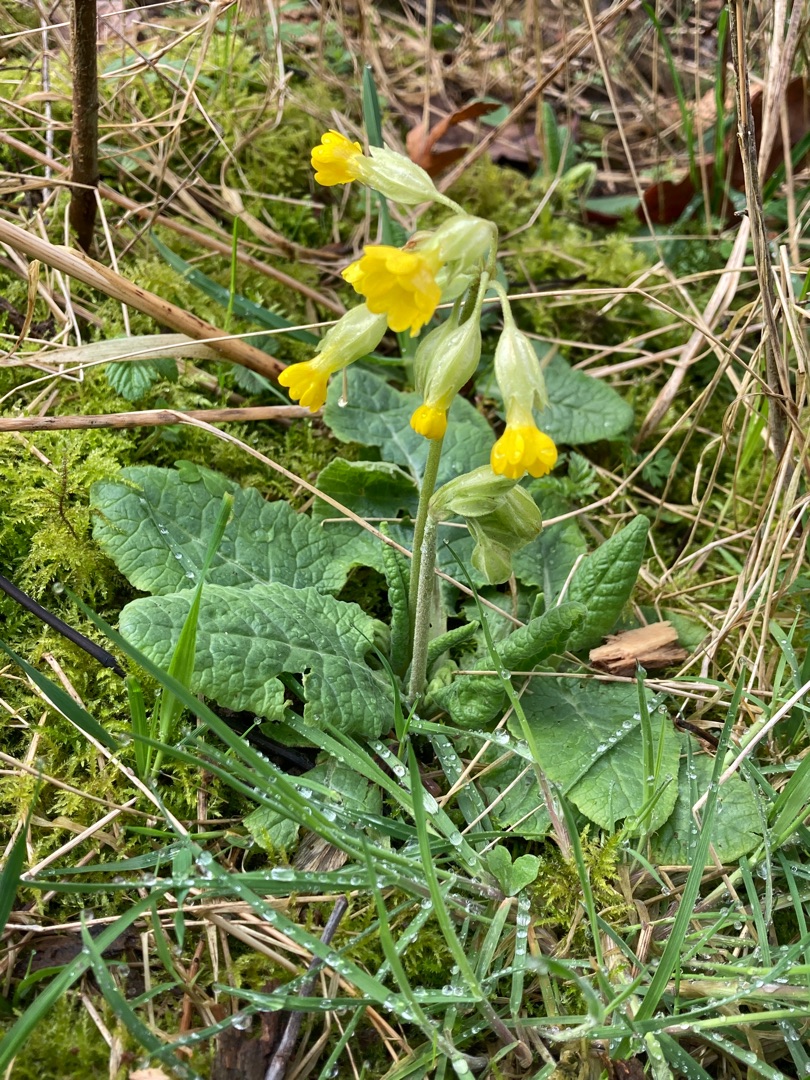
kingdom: Plantae
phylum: Tracheophyta
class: Magnoliopsida
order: Ericales
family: Primulaceae
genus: Primula
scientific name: Primula veris
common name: Hulkravet kodriver
